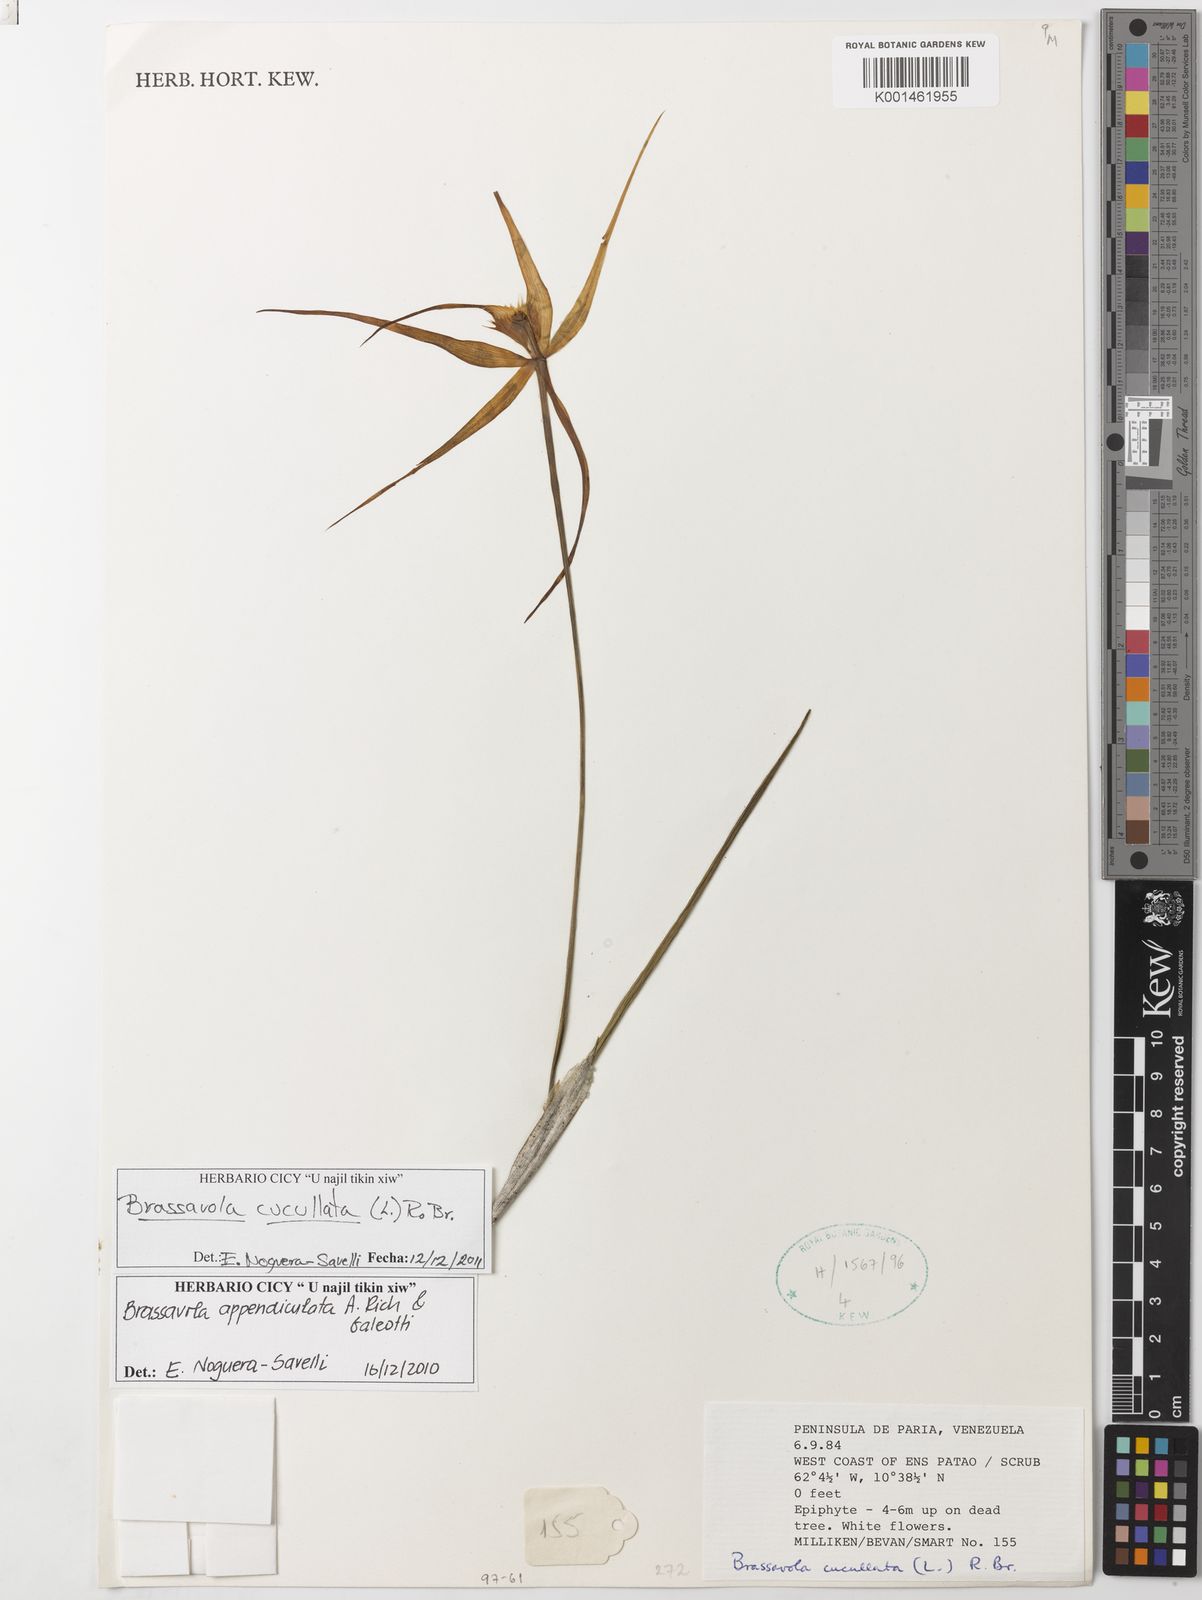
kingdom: Plantae
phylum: Tracheophyta
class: Liliopsida
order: Asparagales
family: Orchidaceae
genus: Brassavola
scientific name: Brassavola cucullata
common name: Daddy longlegs orchid
